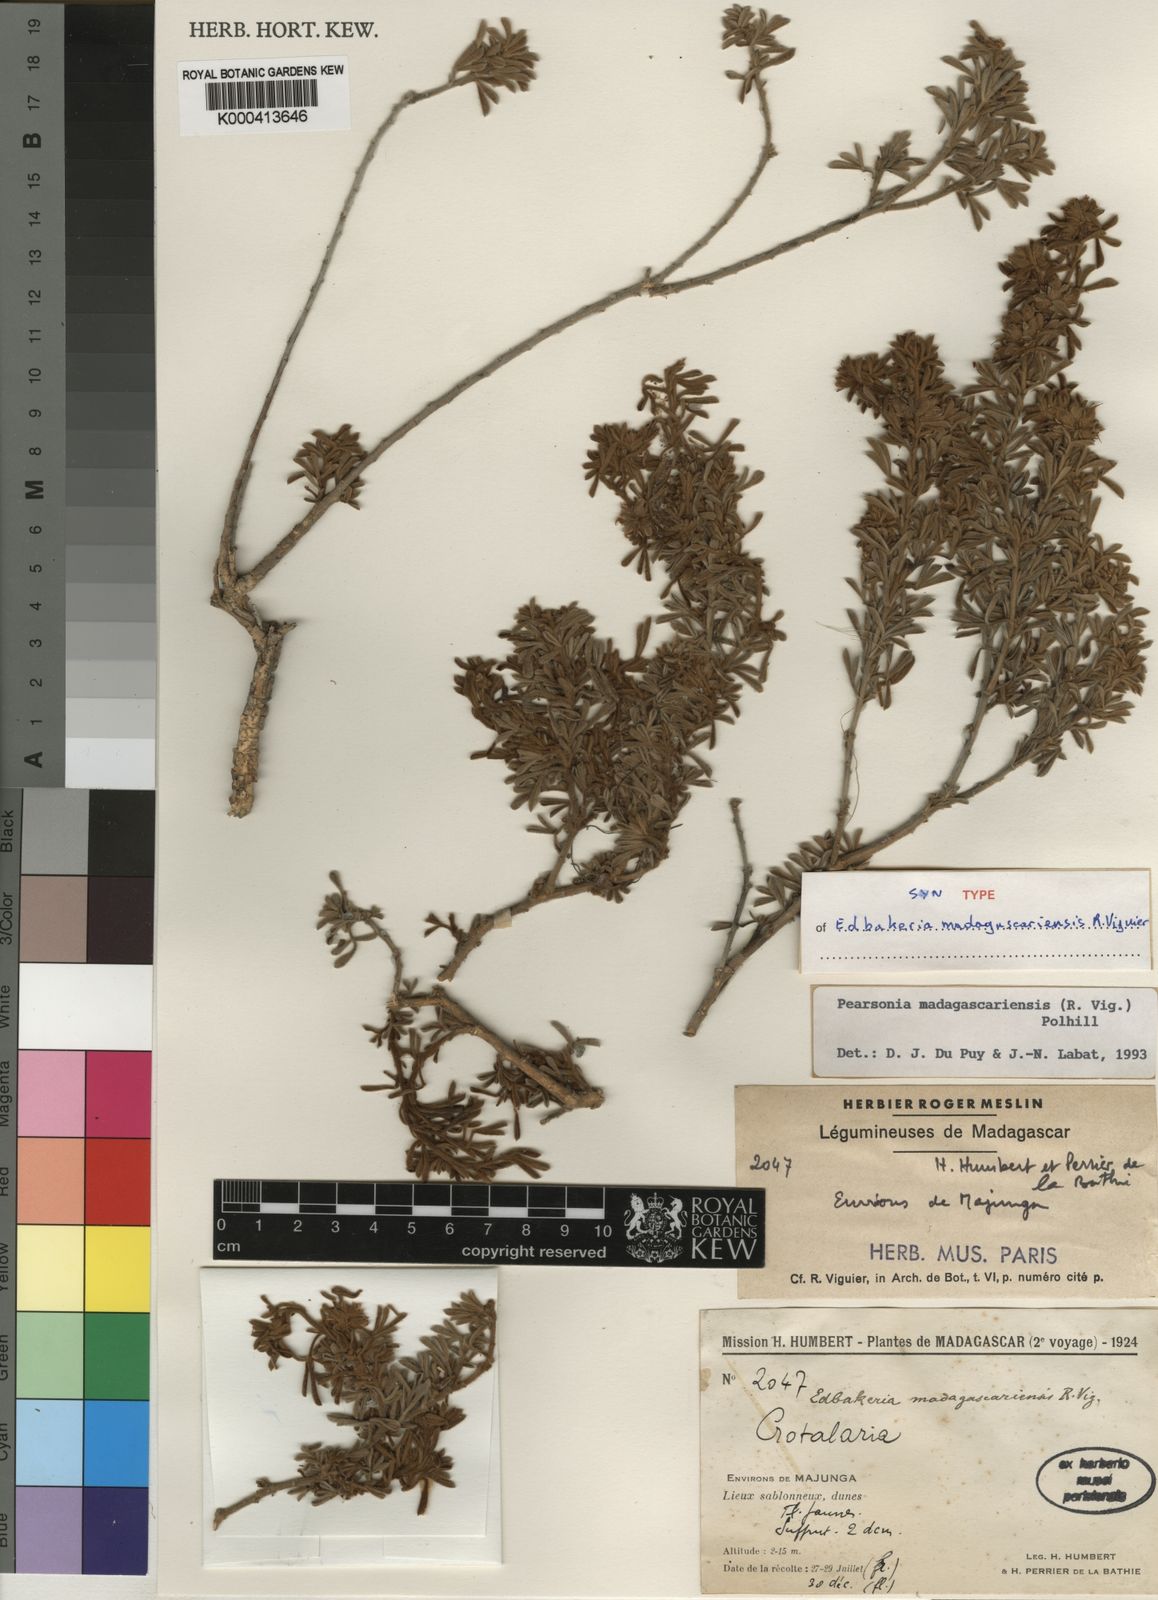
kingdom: Plantae
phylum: Tracheophyta
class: Magnoliopsida
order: Fabales
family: Fabaceae
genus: Pearsonia
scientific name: Pearsonia madagascariensis
